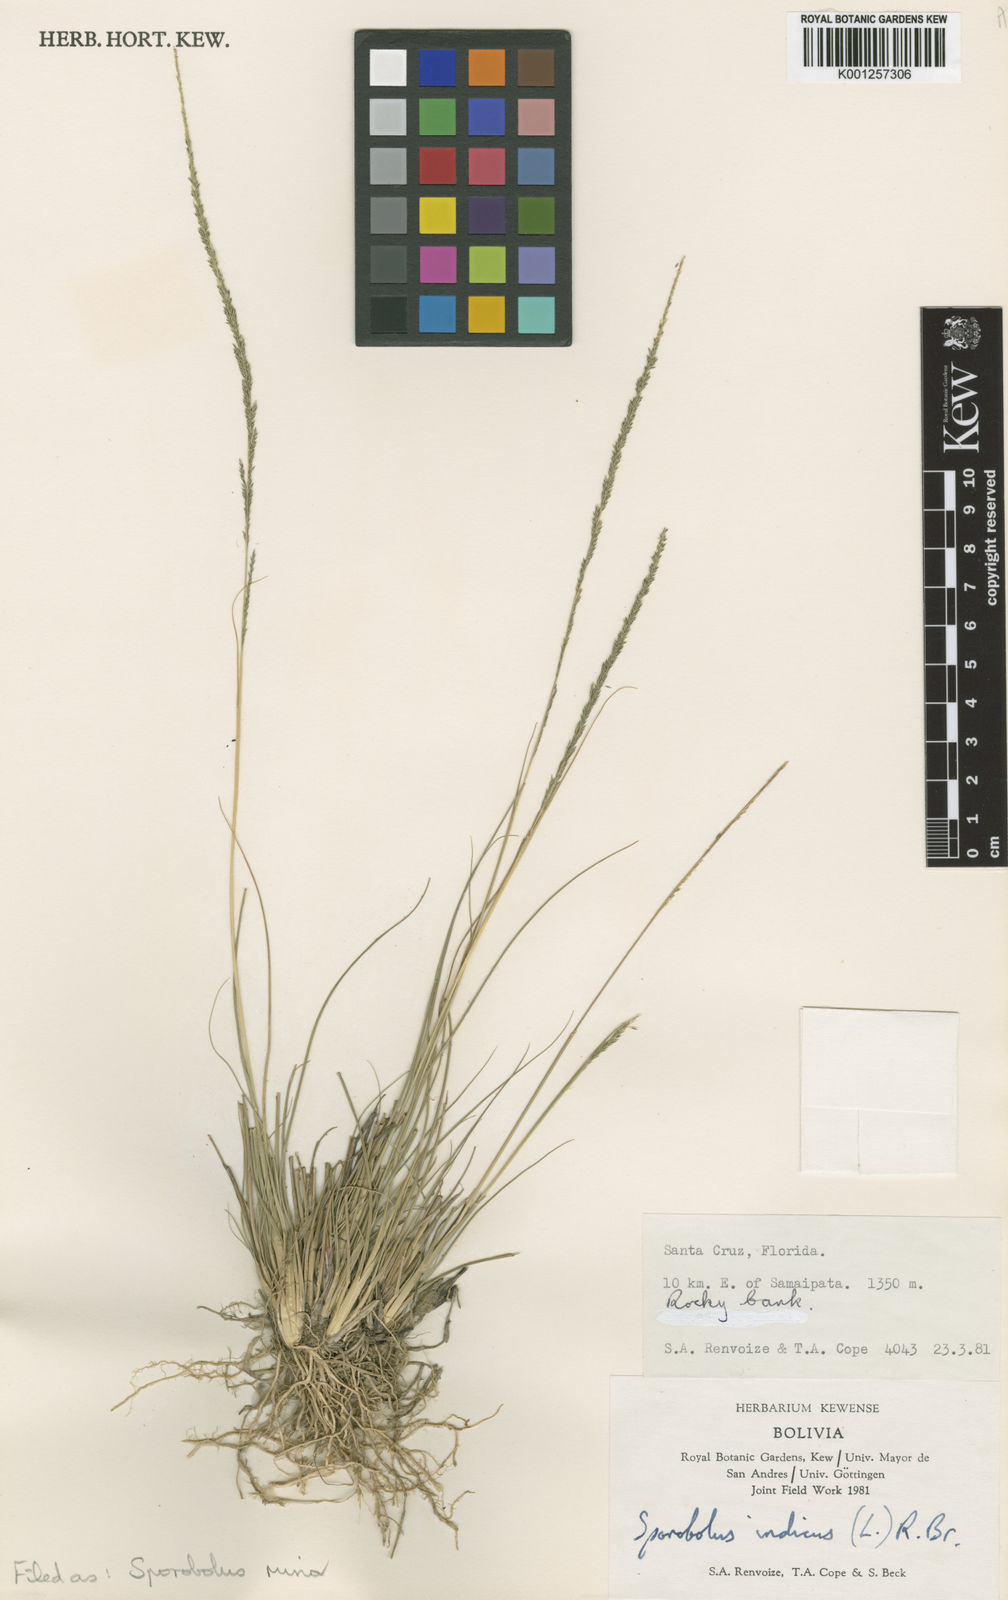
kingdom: Plantae
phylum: Tracheophyta
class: Liliopsida
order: Poales
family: Poaceae
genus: Sporobolus
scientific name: Sporobolus
